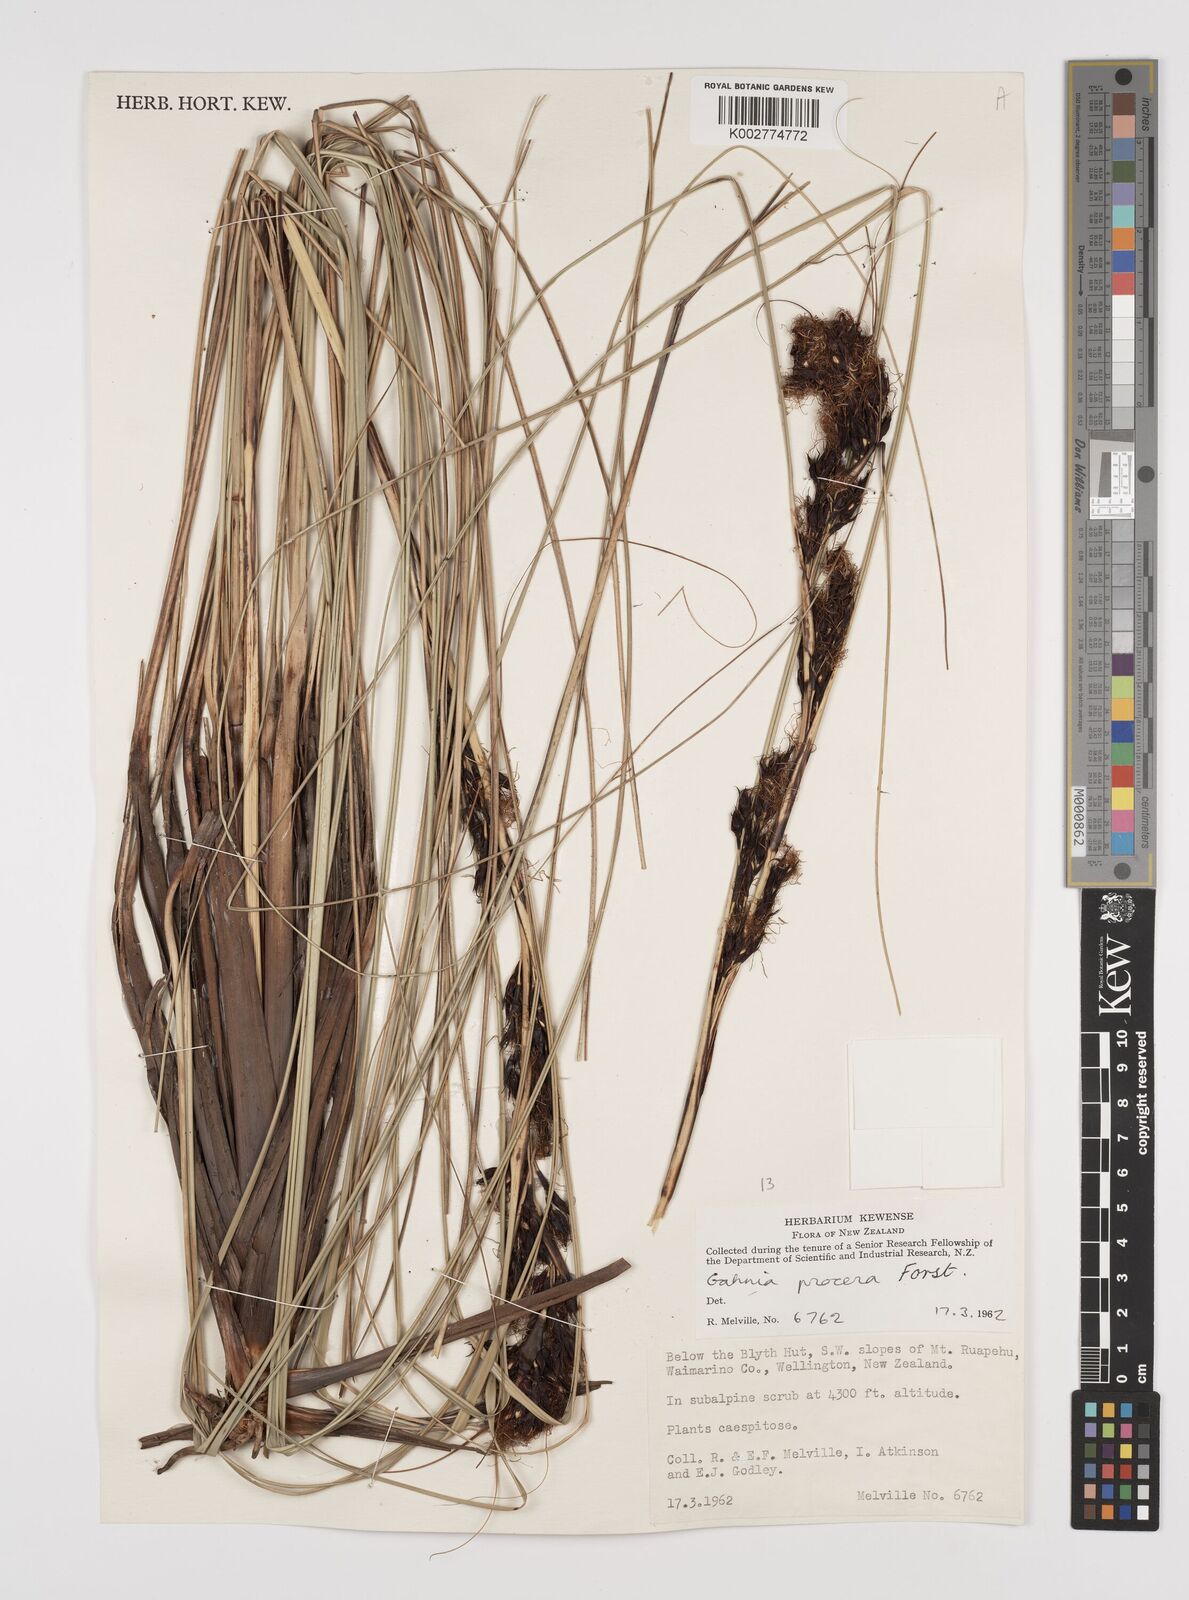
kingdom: Plantae
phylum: Tracheophyta
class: Liliopsida
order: Poales
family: Cyperaceae
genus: Gahnia
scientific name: Gahnia procera
